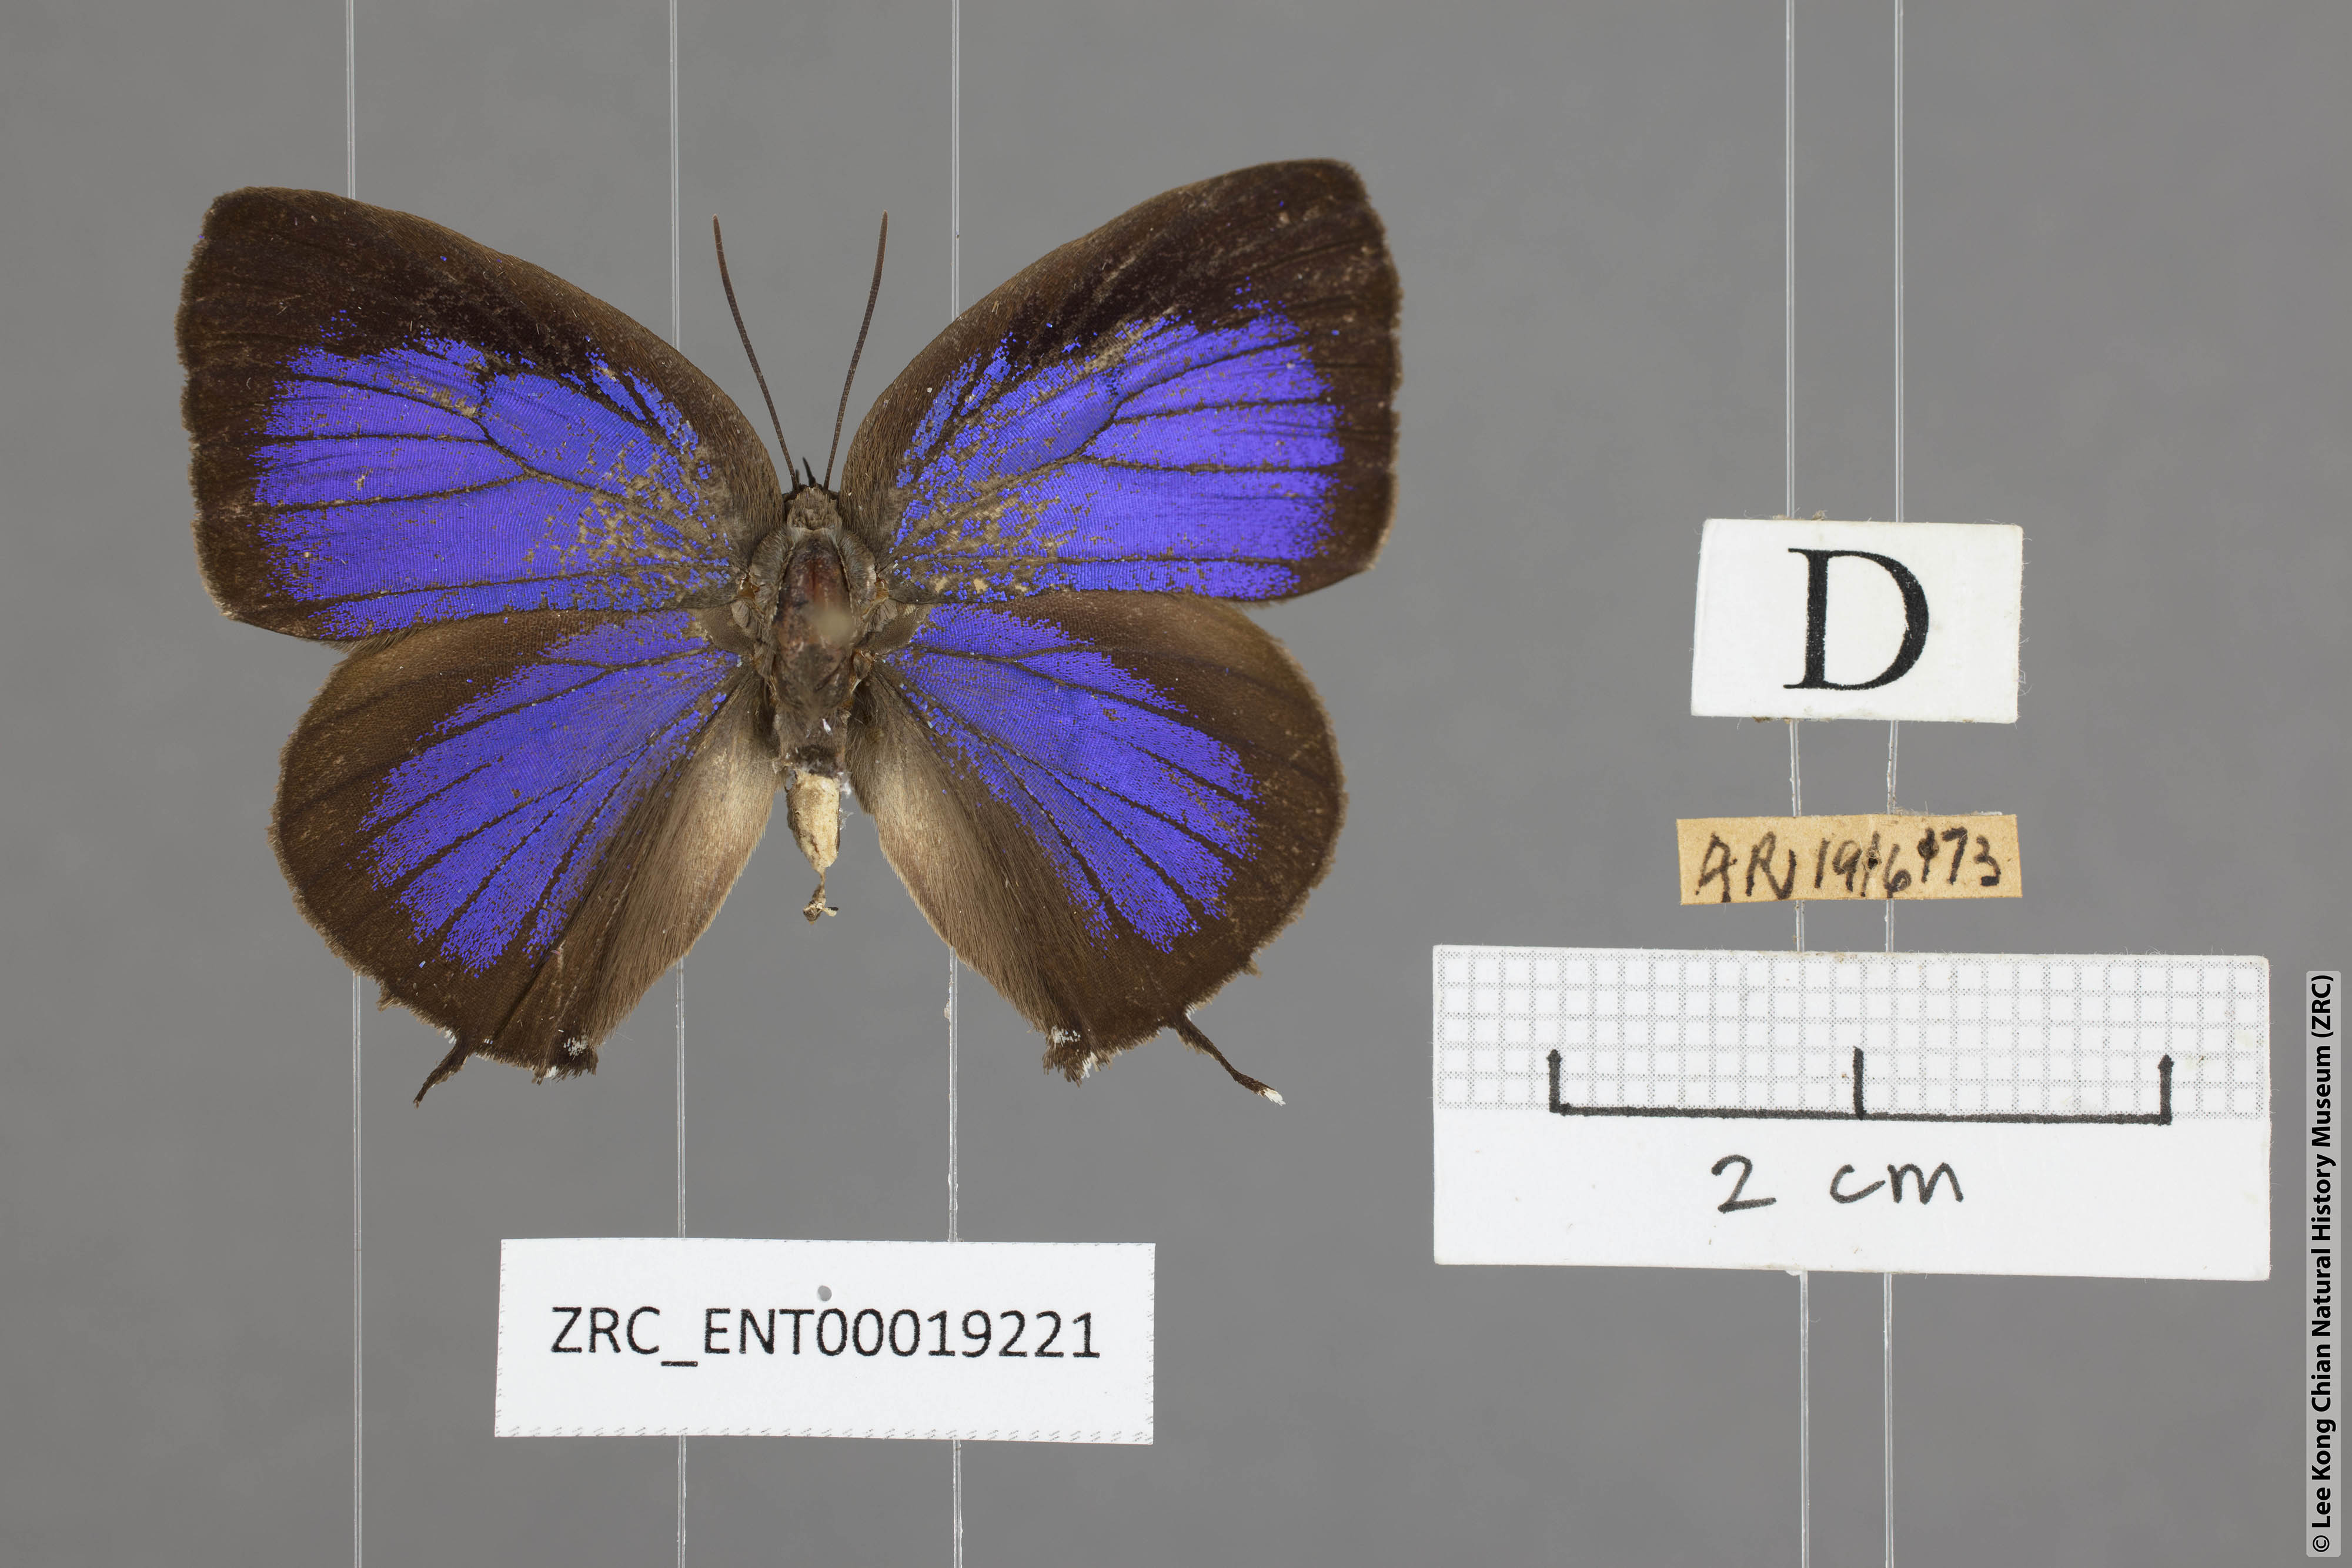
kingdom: Animalia
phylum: Arthropoda
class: Insecta
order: Lepidoptera
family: Lycaenidae
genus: Arhopala
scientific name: Arhopala athada
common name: Vinous oakblue
